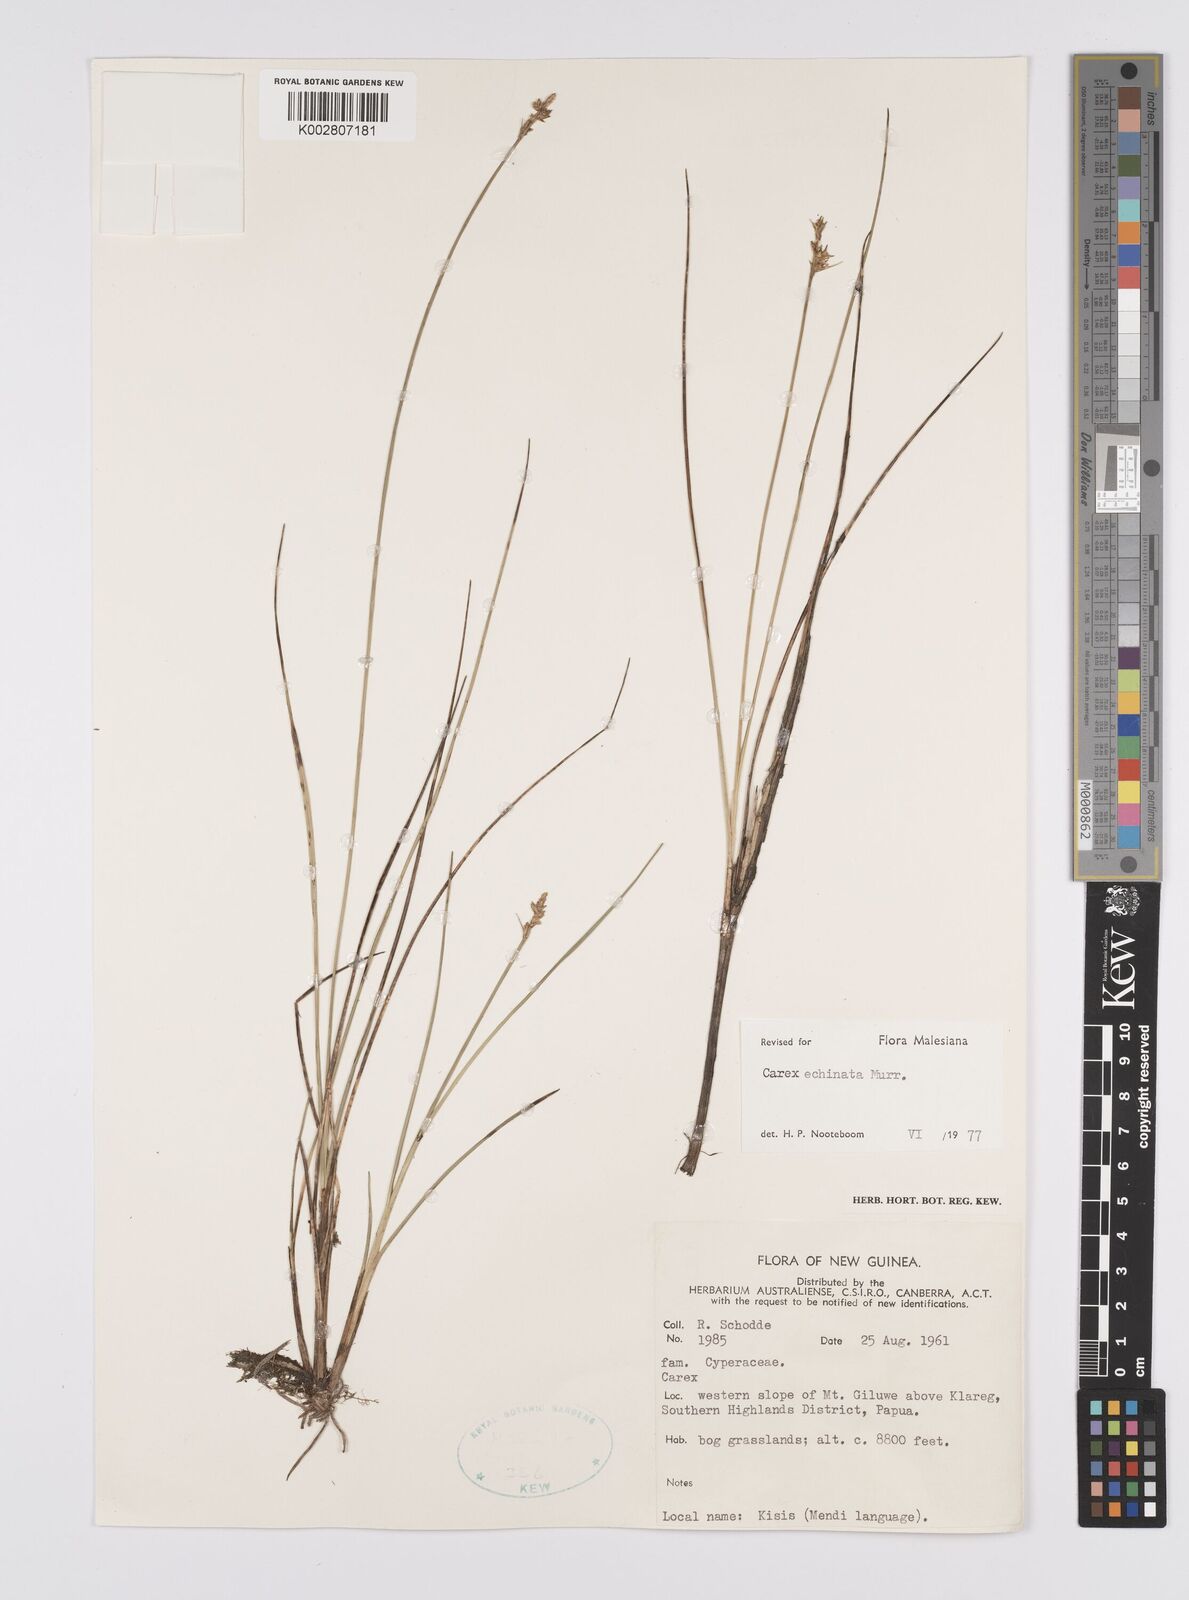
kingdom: Plantae
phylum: Tracheophyta
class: Liliopsida
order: Poales
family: Cyperaceae
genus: Carex
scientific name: Carex echinata
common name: Star sedge
